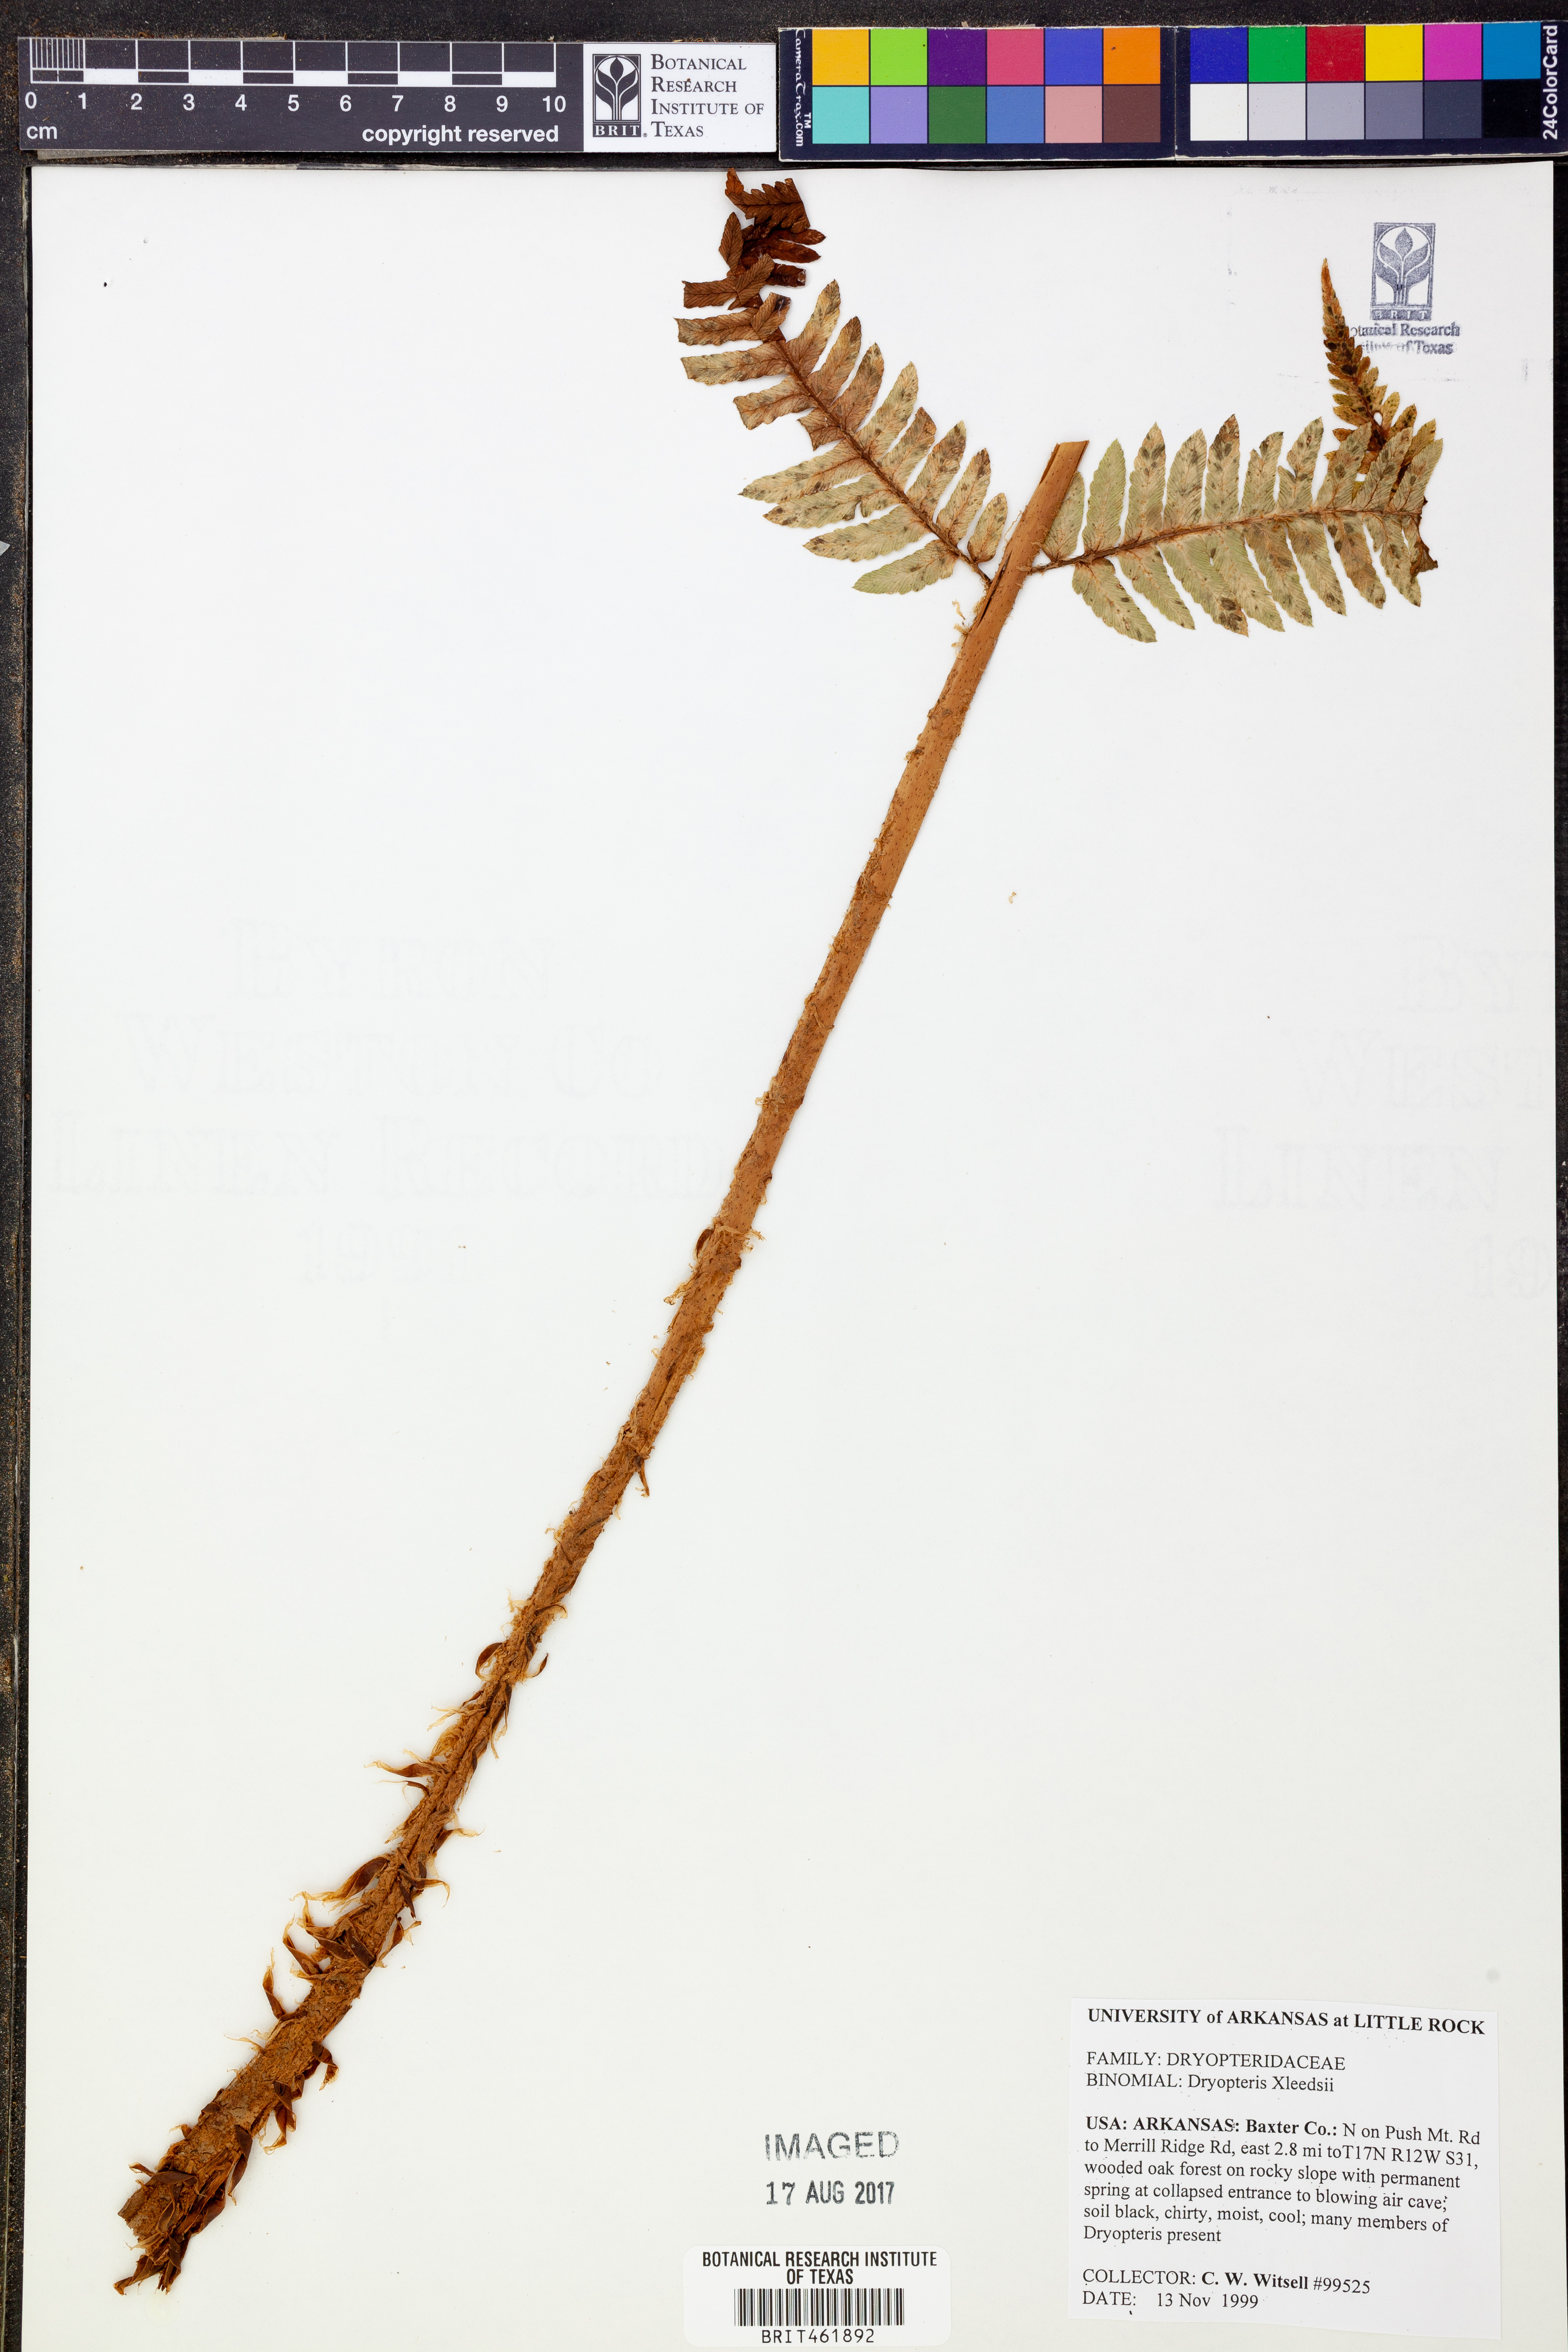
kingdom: Plantae
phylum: Tracheophyta
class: Polypodiopsida
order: Polypodiales
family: Dryopteridaceae
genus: Dryopteris
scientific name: Dryopteris
